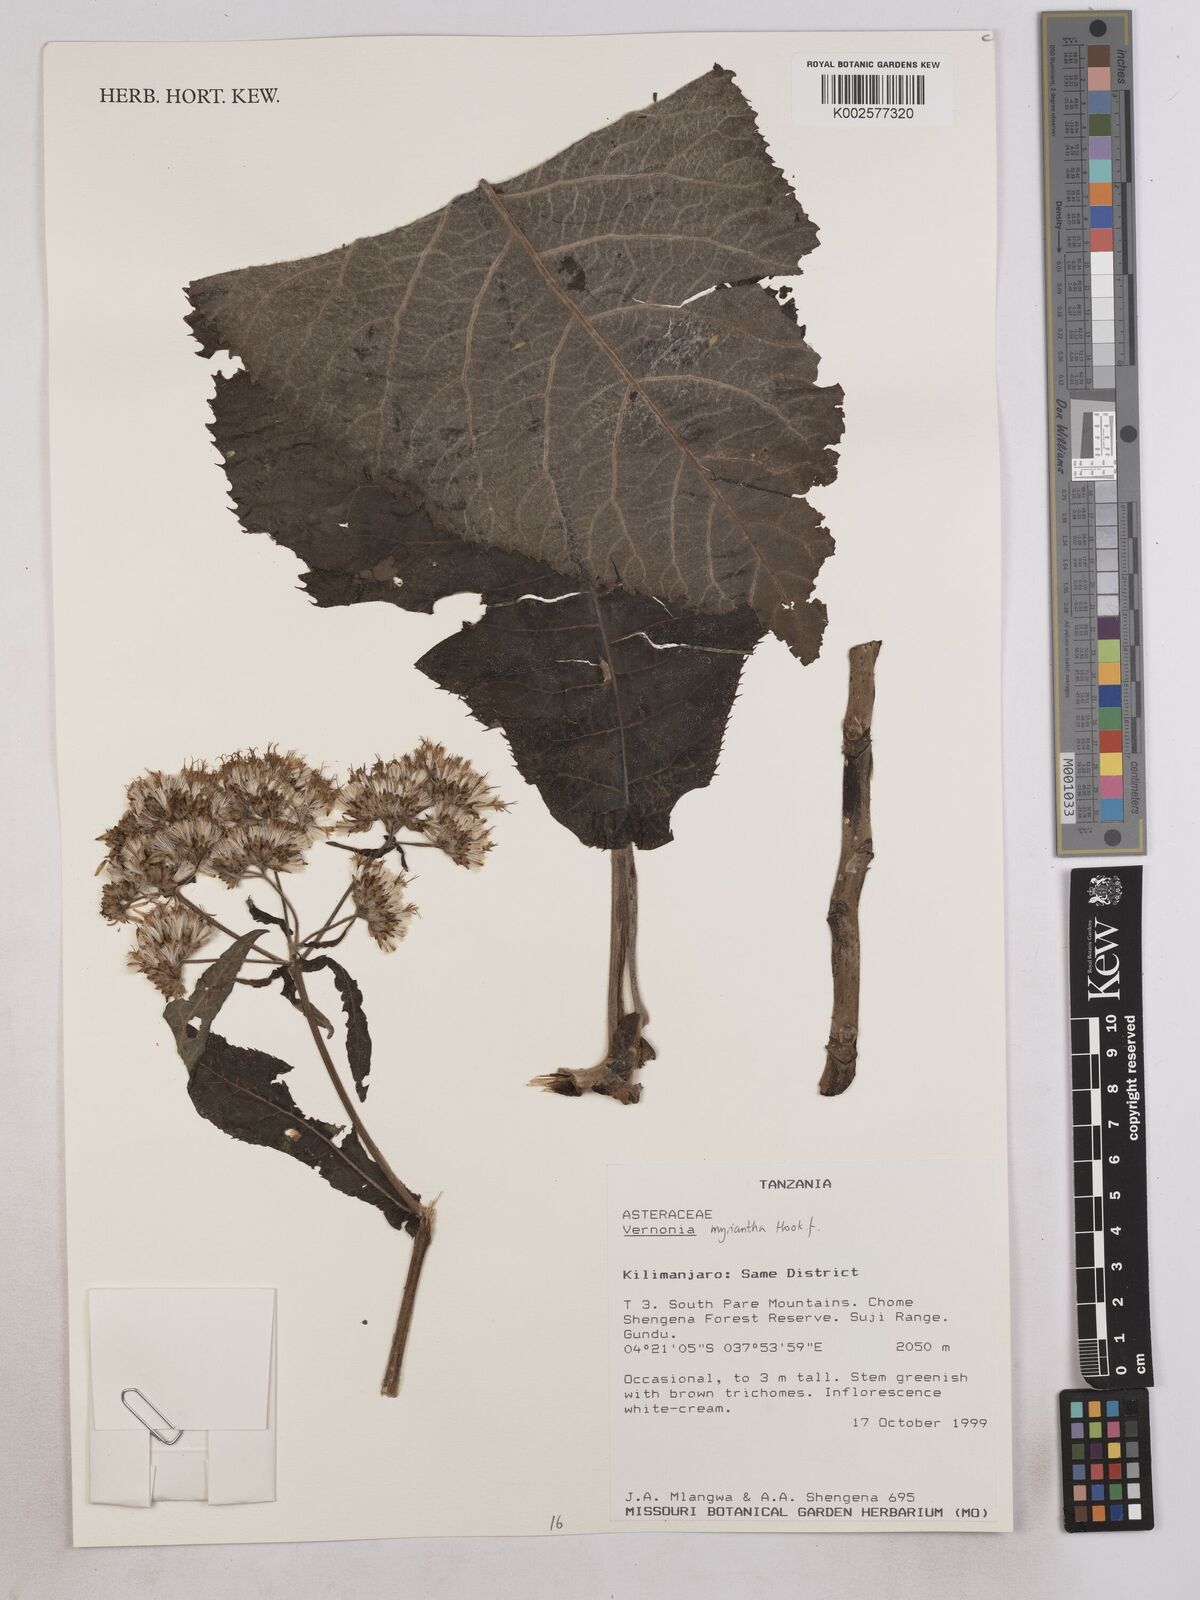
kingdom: Plantae
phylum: Tracheophyta
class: Magnoliopsida
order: Asterales
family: Asteraceae
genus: Gymnanthemum
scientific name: Gymnanthemum myrianthum
